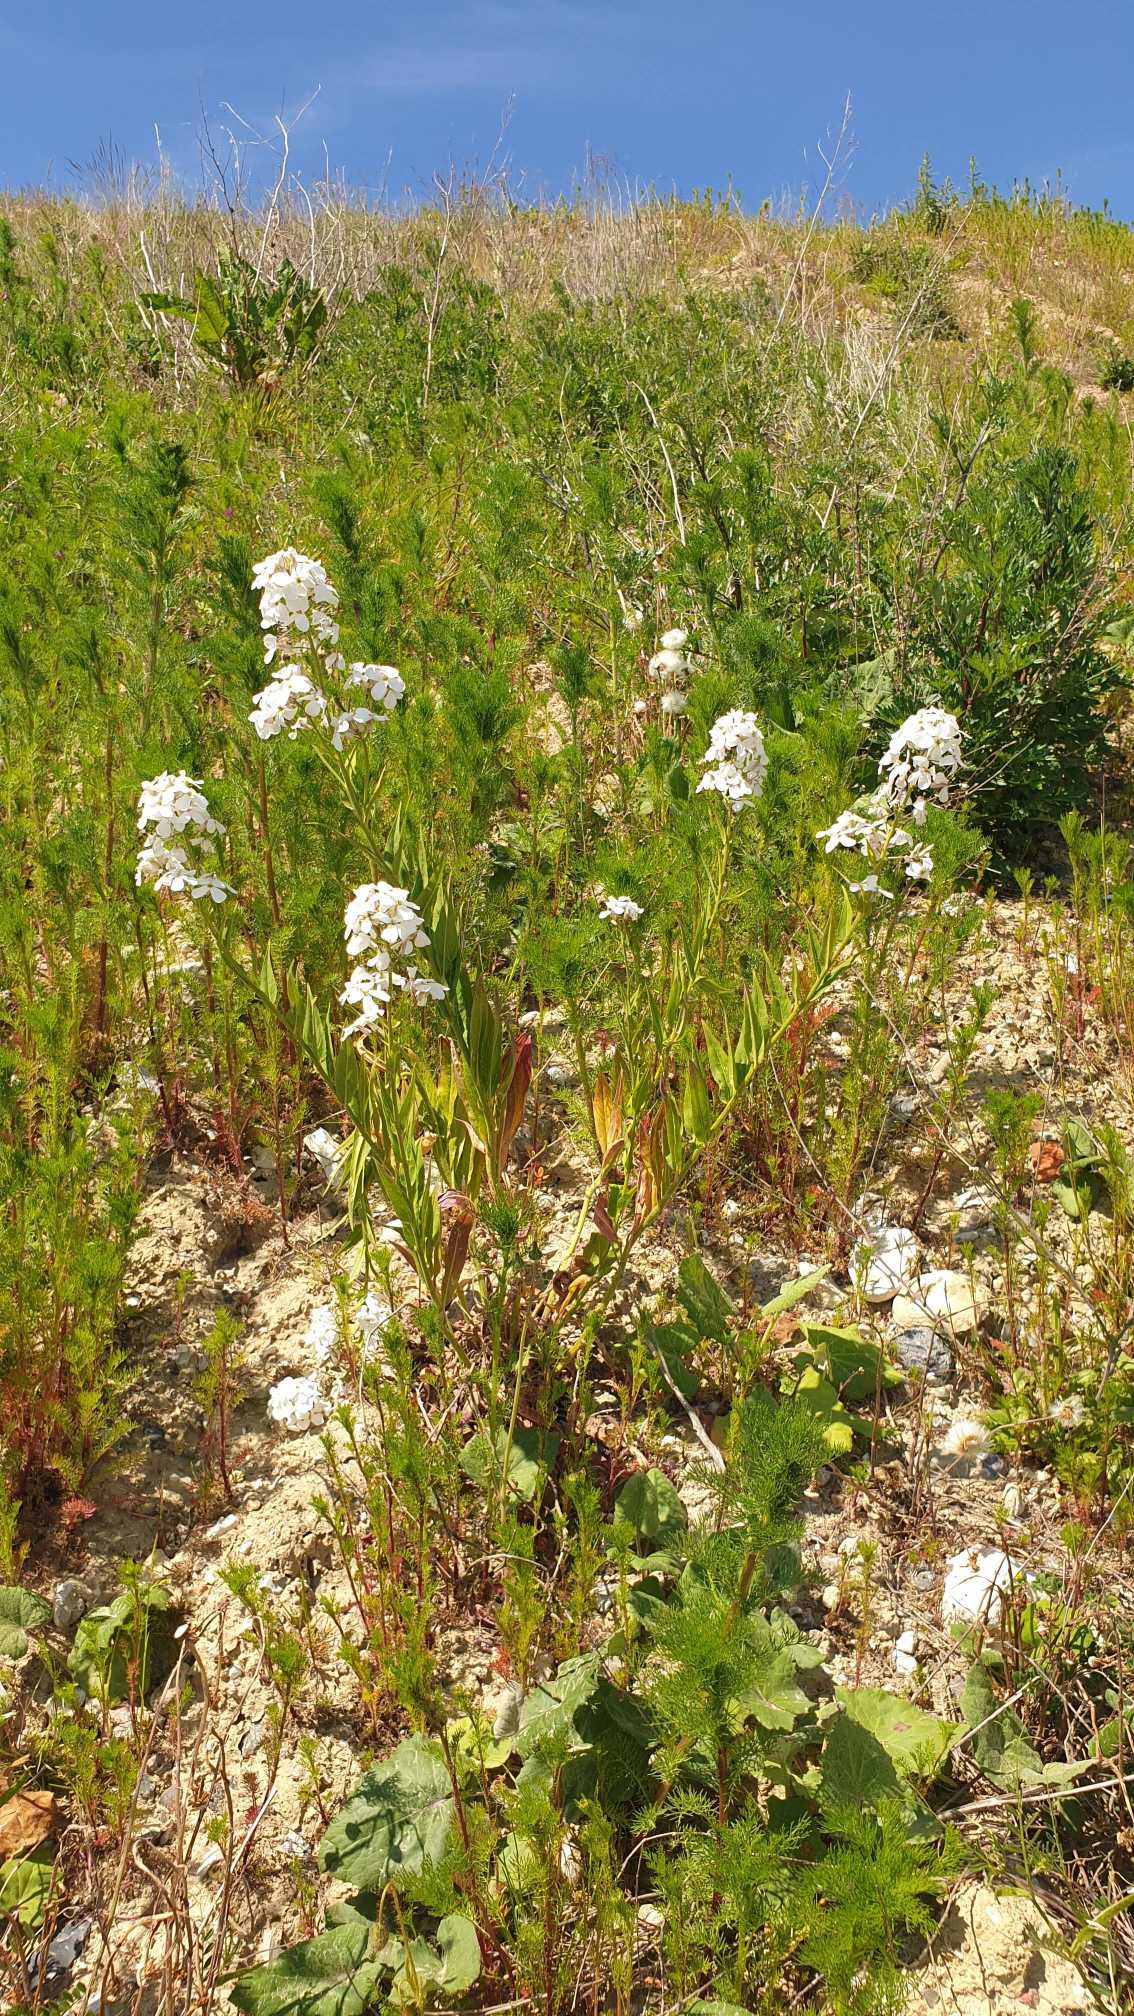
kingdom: Plantae
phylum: Tracheophyta
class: Magnoliopsida
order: Brassicales
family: Brassicaceae
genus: Hesperis
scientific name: Hesperis matronalis
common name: Aftenstjerne
